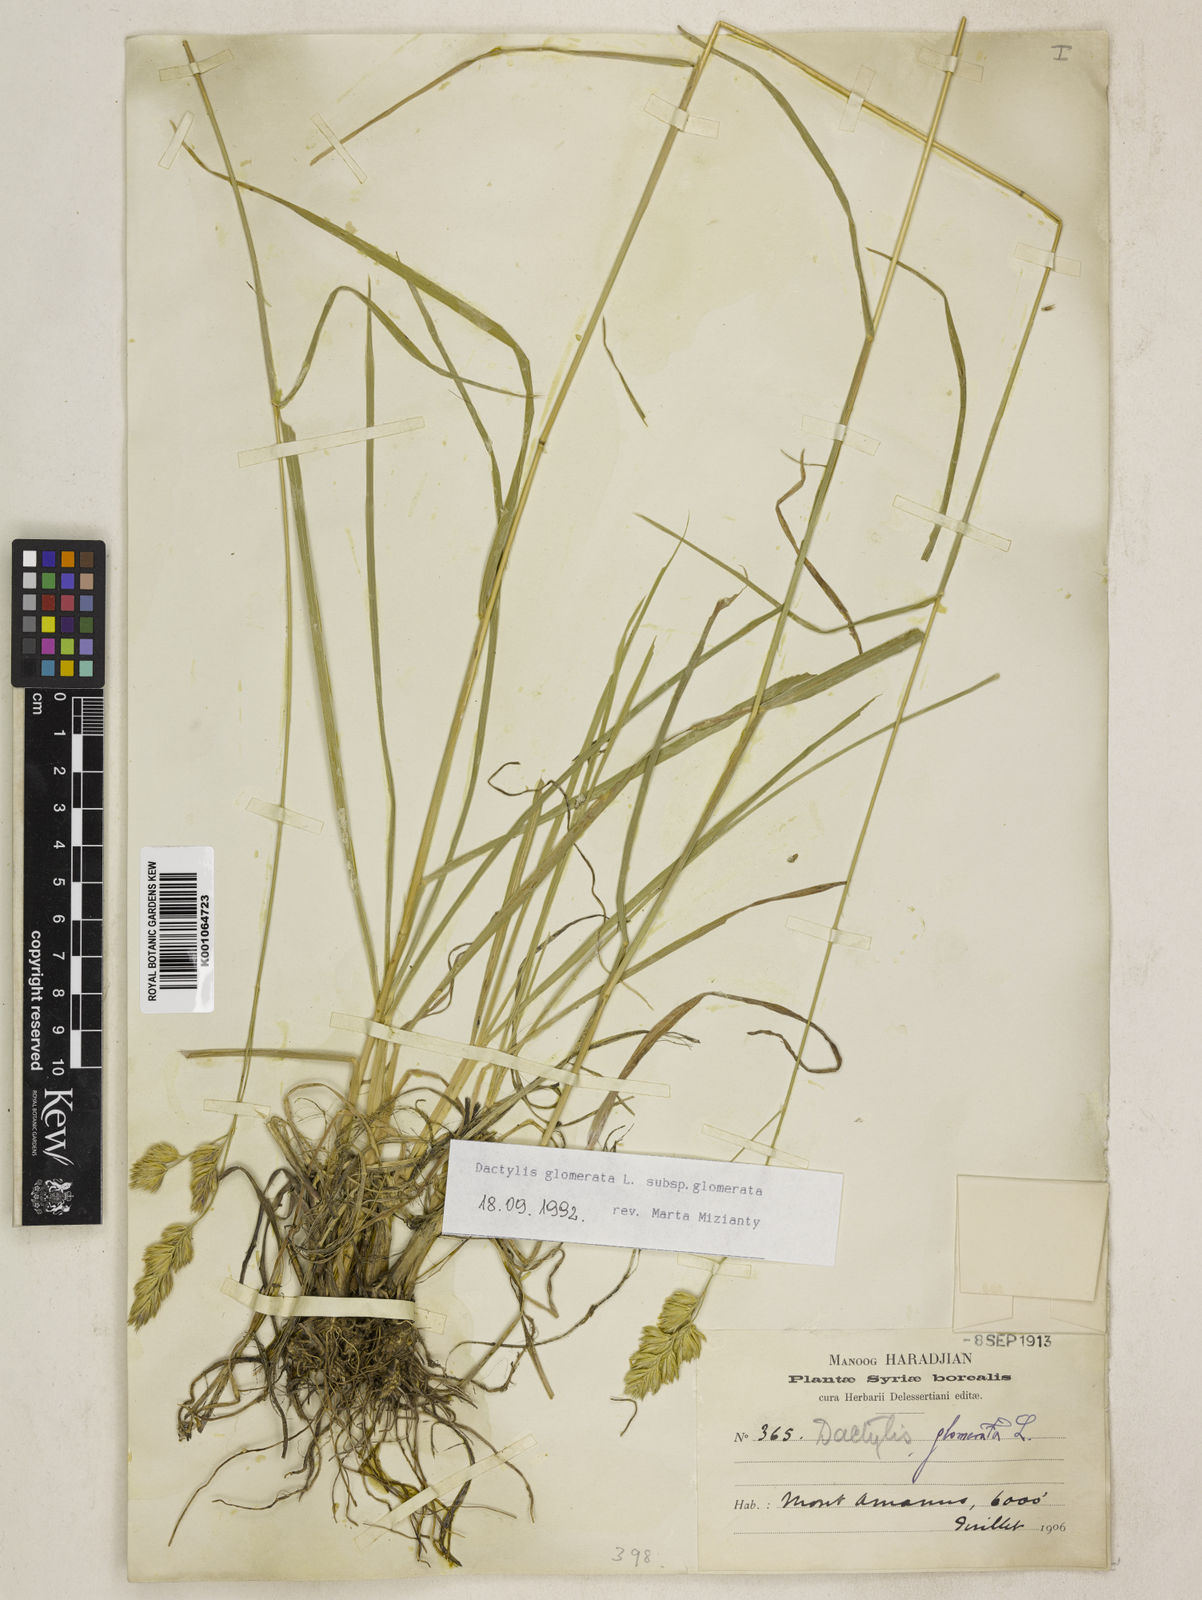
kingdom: Plantae
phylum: Tracheophyta
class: Liliopsida
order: Poales
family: Poaceae
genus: Dactylis
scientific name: Dactylis glomerata
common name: Orchardgrass
